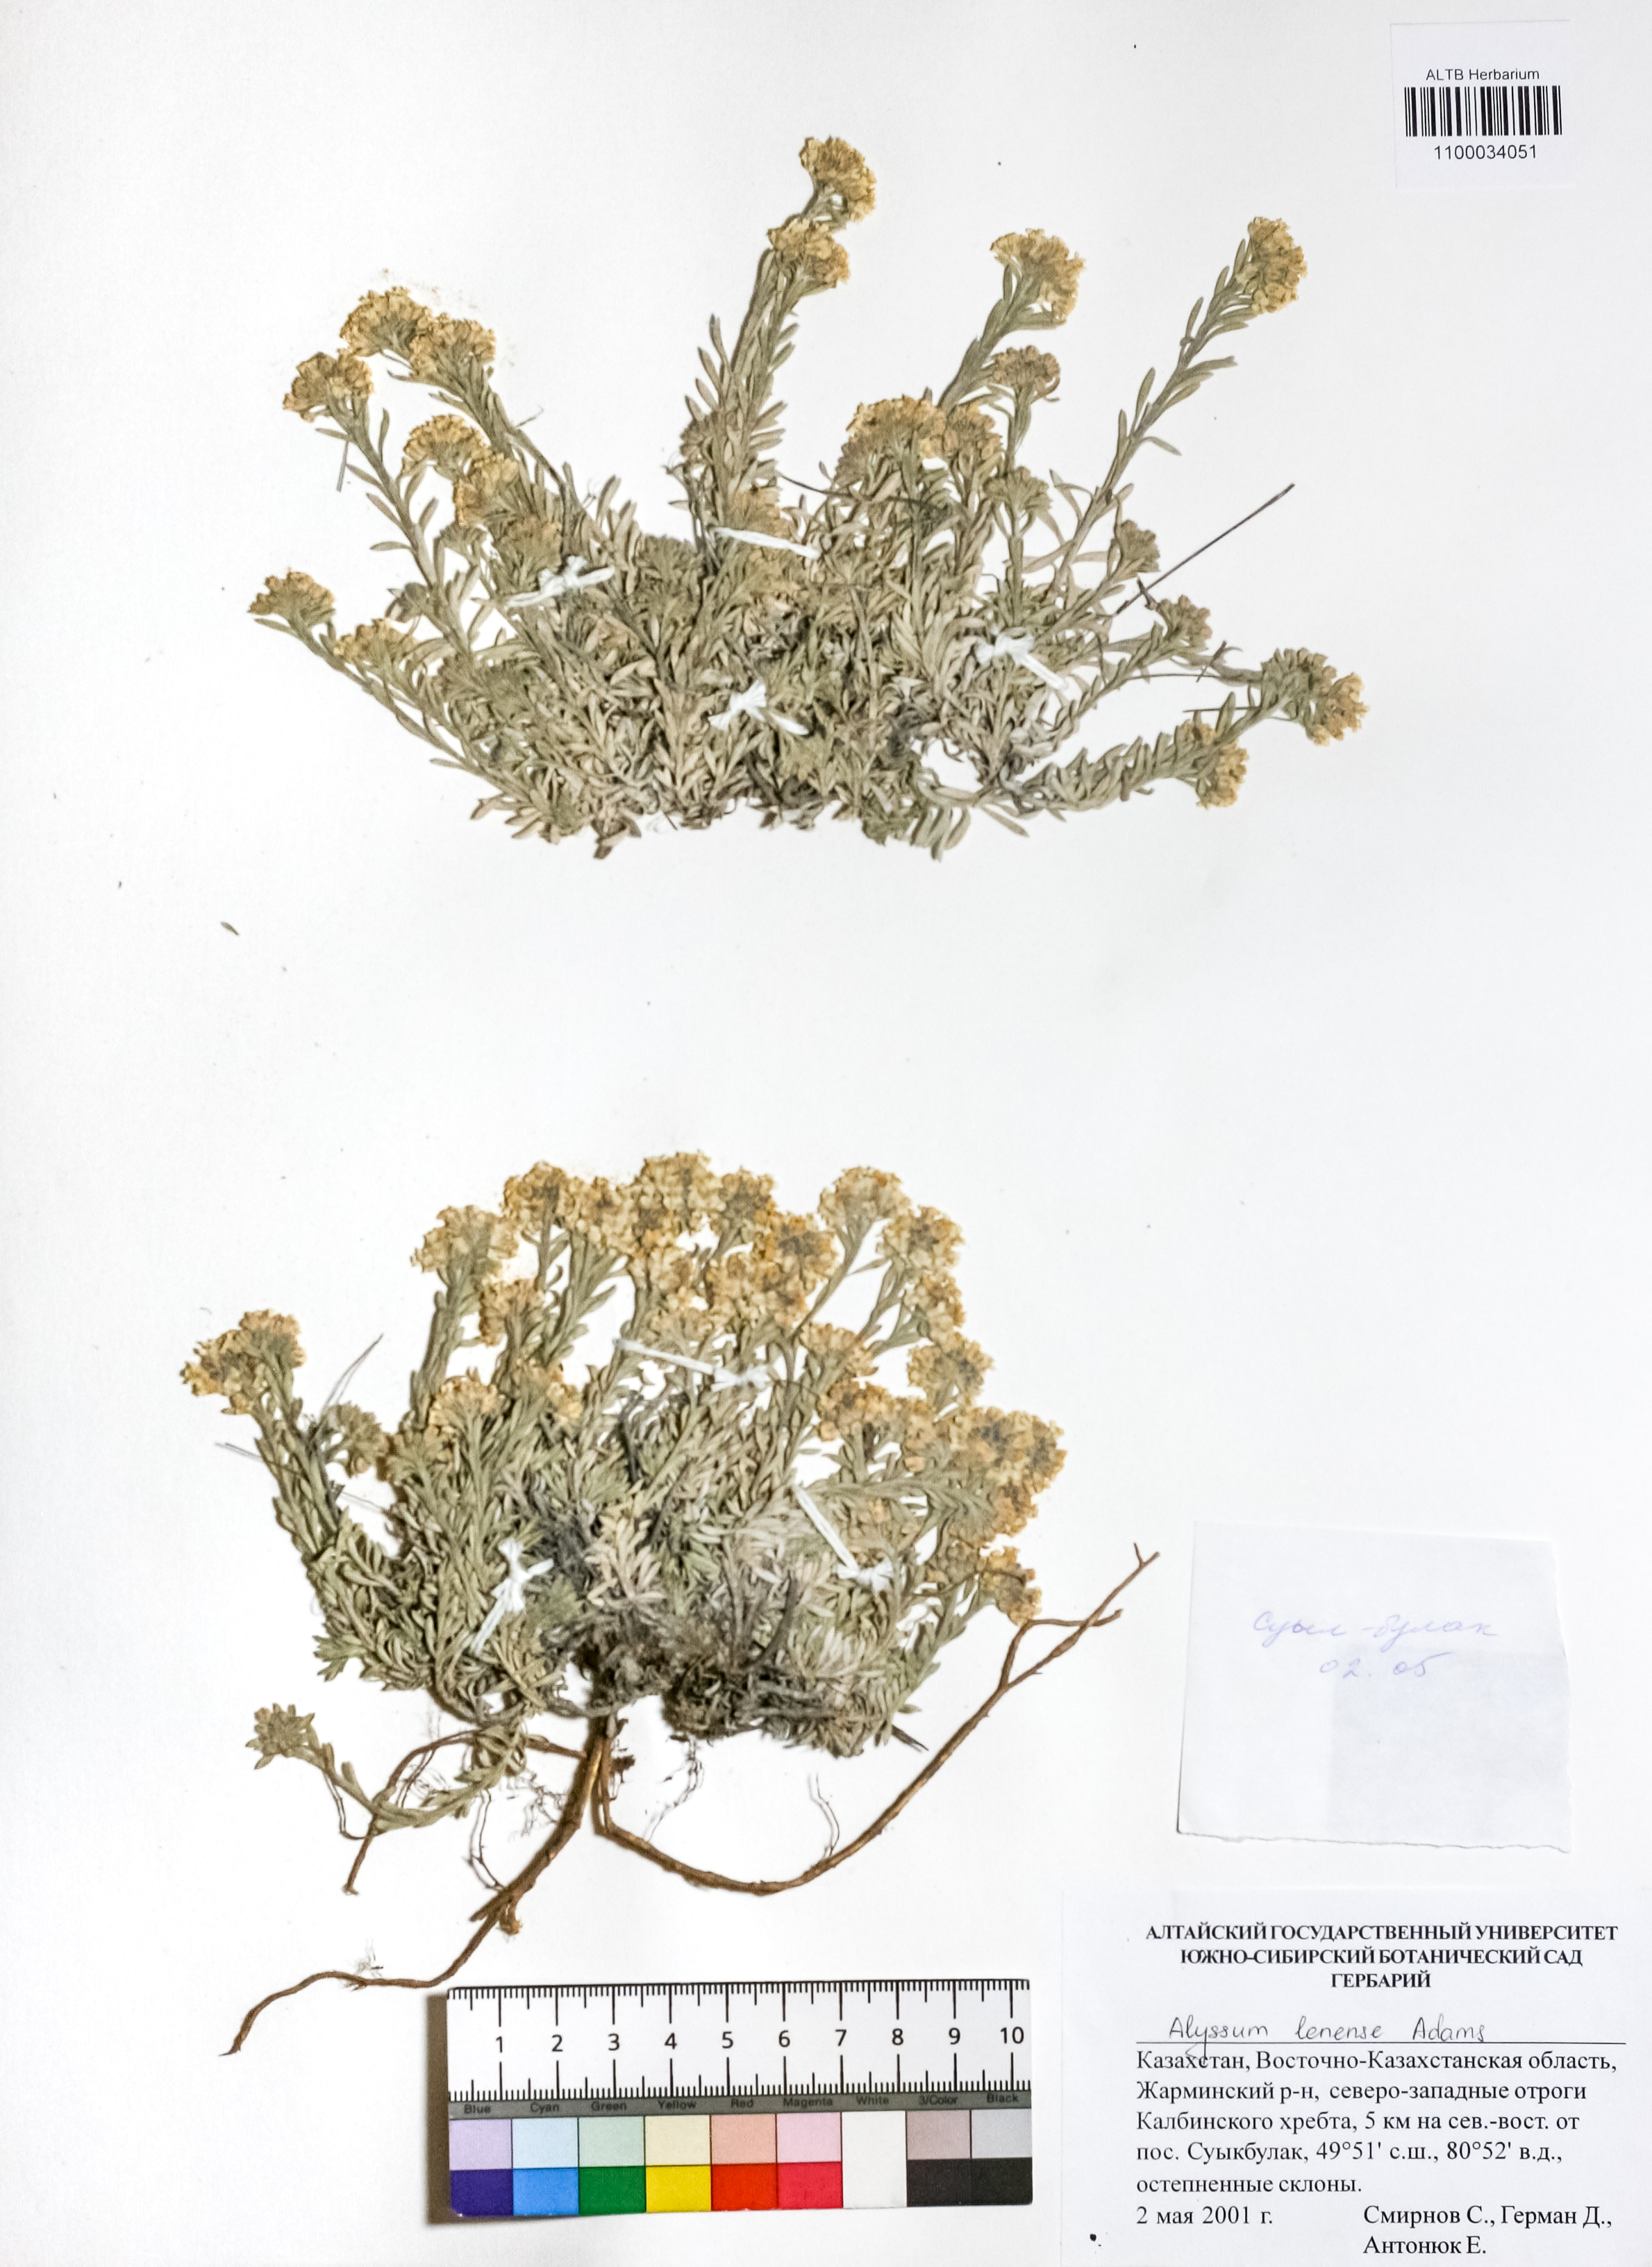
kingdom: Plantae
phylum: Tracheophyta
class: Magnoliopsida
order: Brassicales
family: Brassicaceae
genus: Alyssum
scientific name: Alyssum lenense
